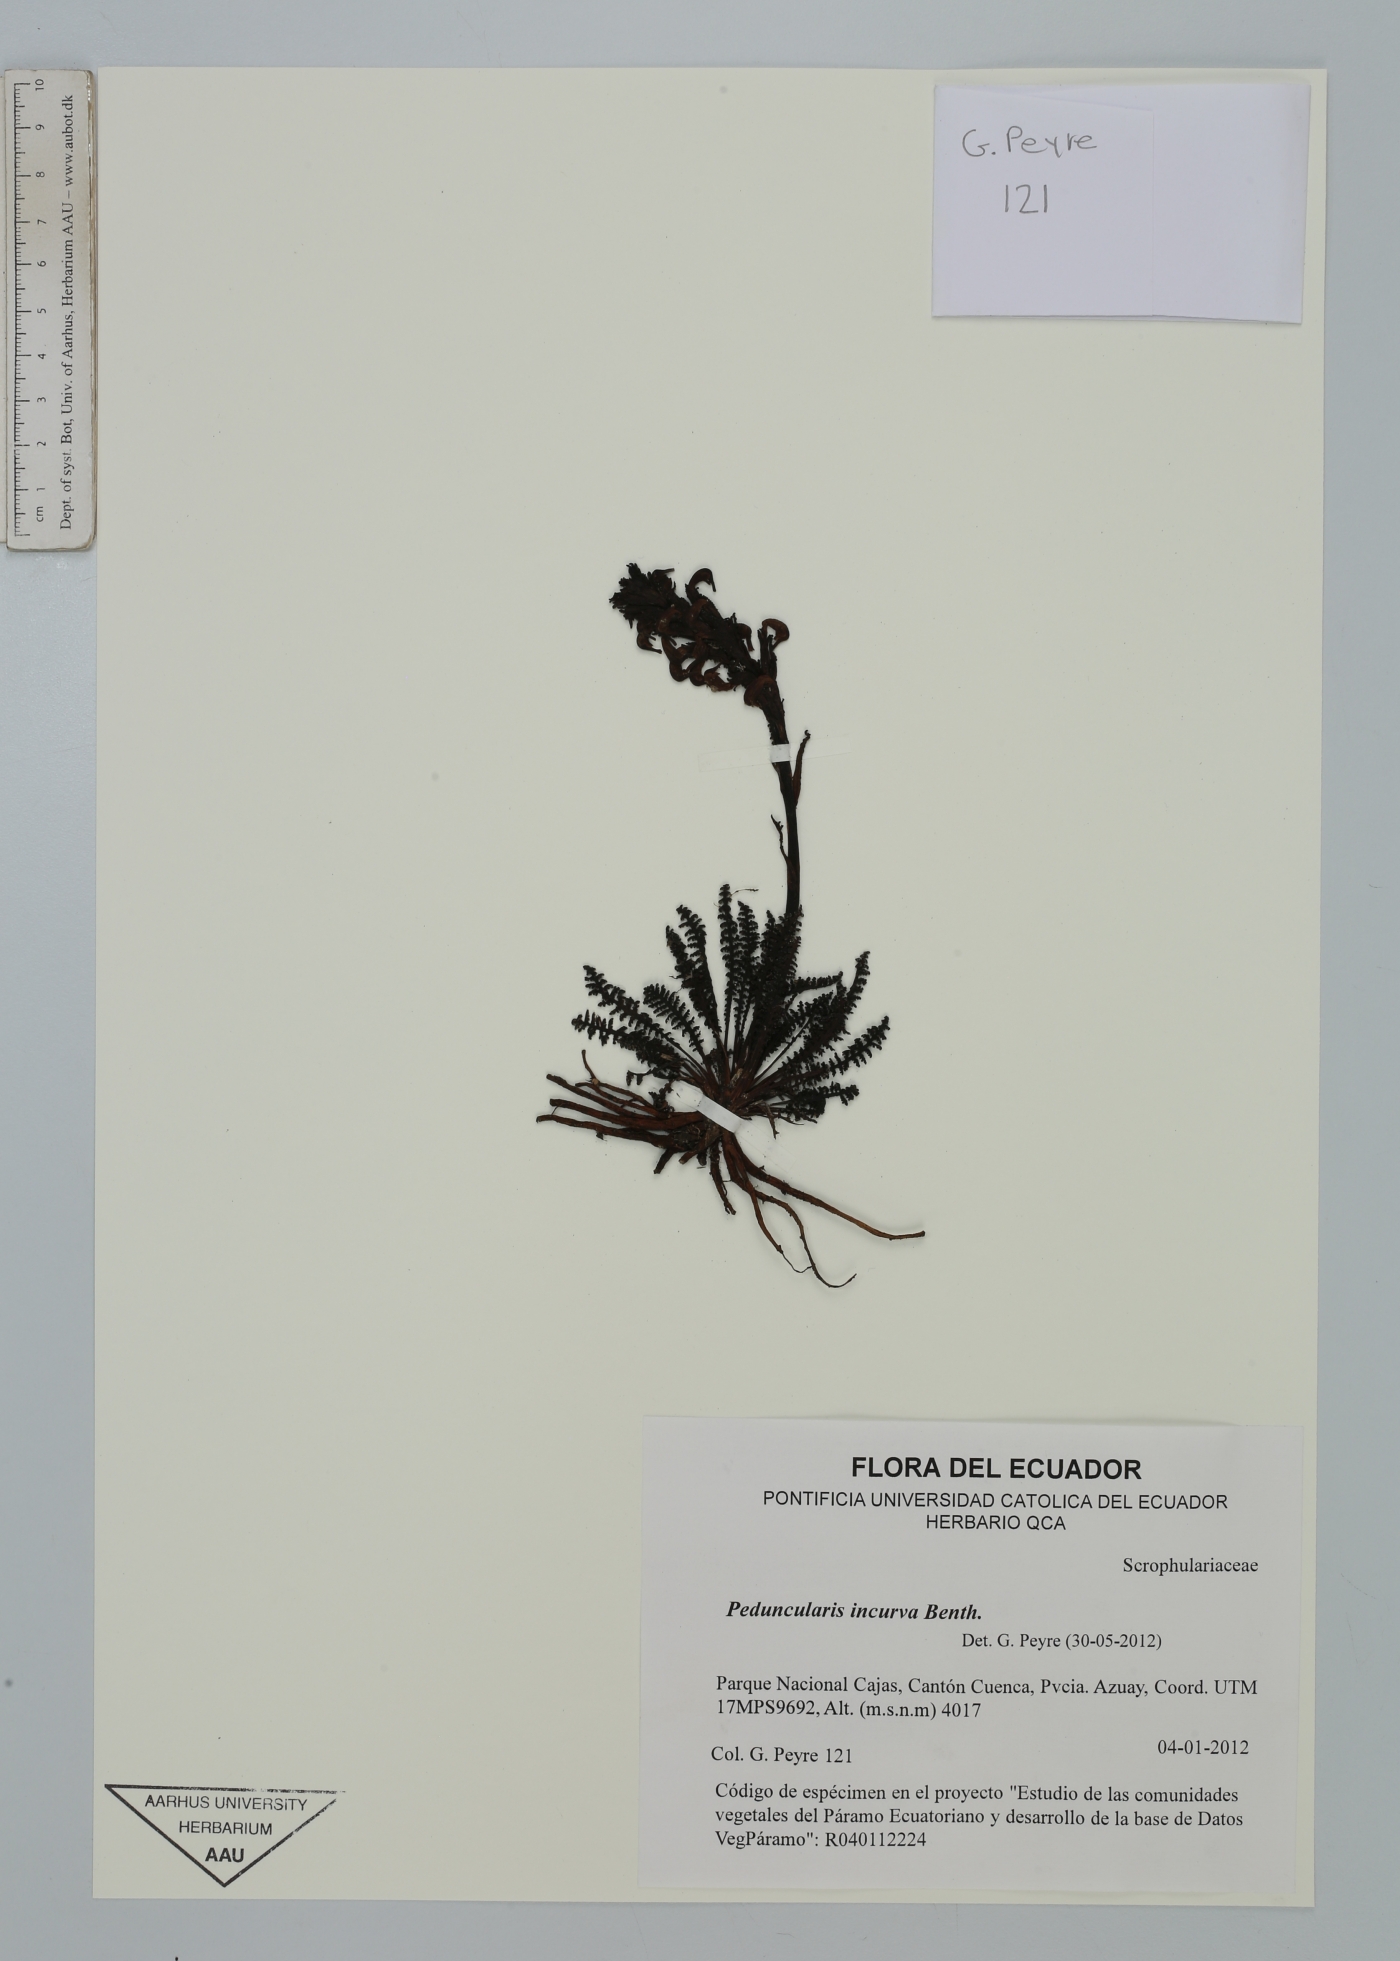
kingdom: Plantae
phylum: Tracheophyta
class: Magnoliopsida
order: Lamiales
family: Orobanchaceae
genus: Pedicularis
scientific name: Pedicularis incurva
